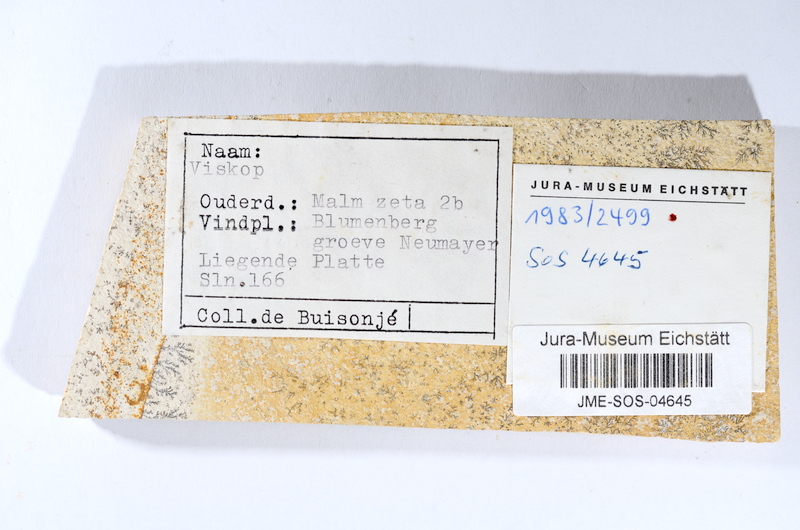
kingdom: Animalia
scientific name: Animalia
